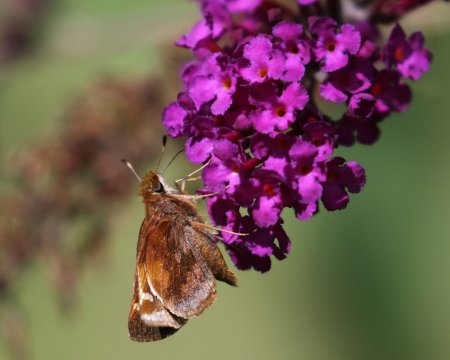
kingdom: Animalia
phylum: Arthropoda
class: Insecta
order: Lepidoptera
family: Hesperiidae
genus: Lon
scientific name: Lon zabulon
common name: Zabulon Skipper
